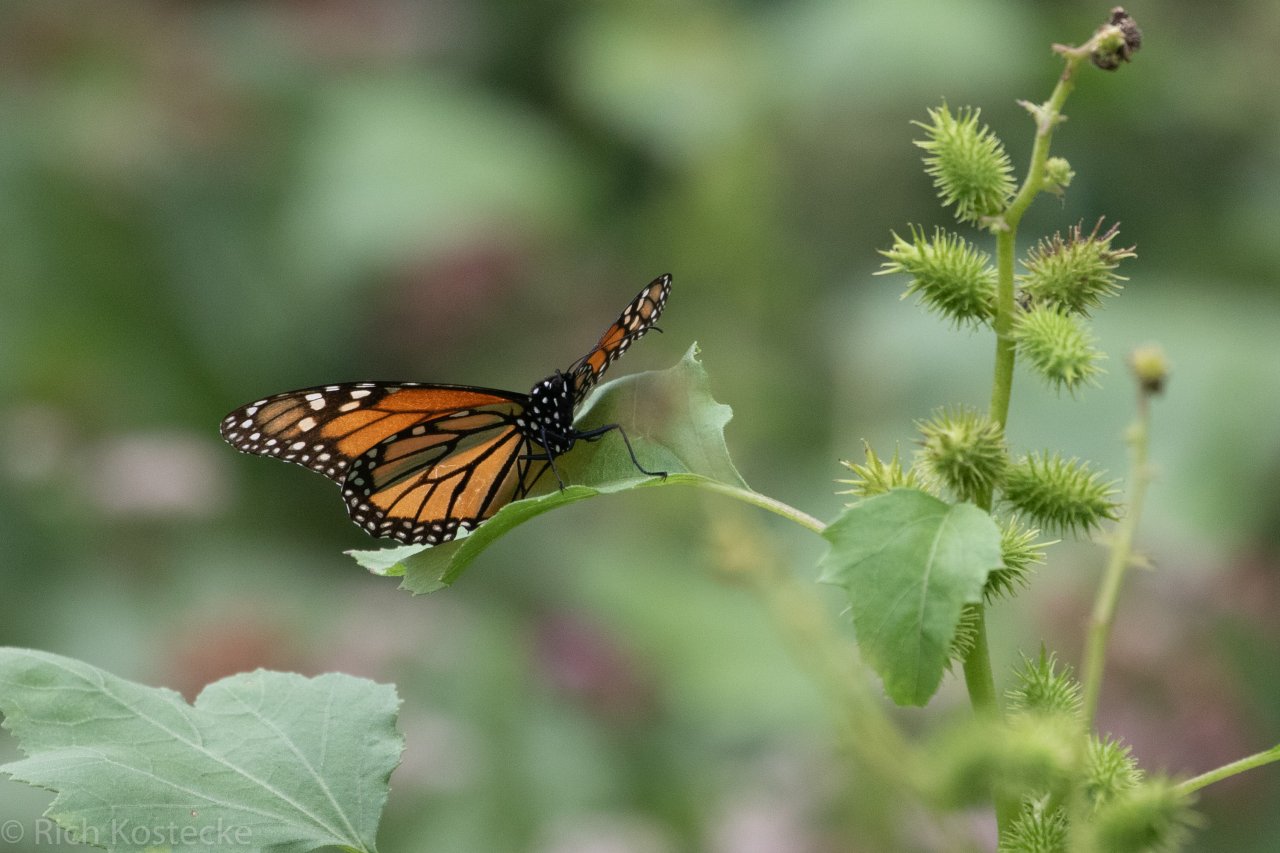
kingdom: Animalia
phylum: Arthropoda
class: Insecta
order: Lepidoptera
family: Nymphalidae
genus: Danaus
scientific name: Danaus plexippus
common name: Monarch
